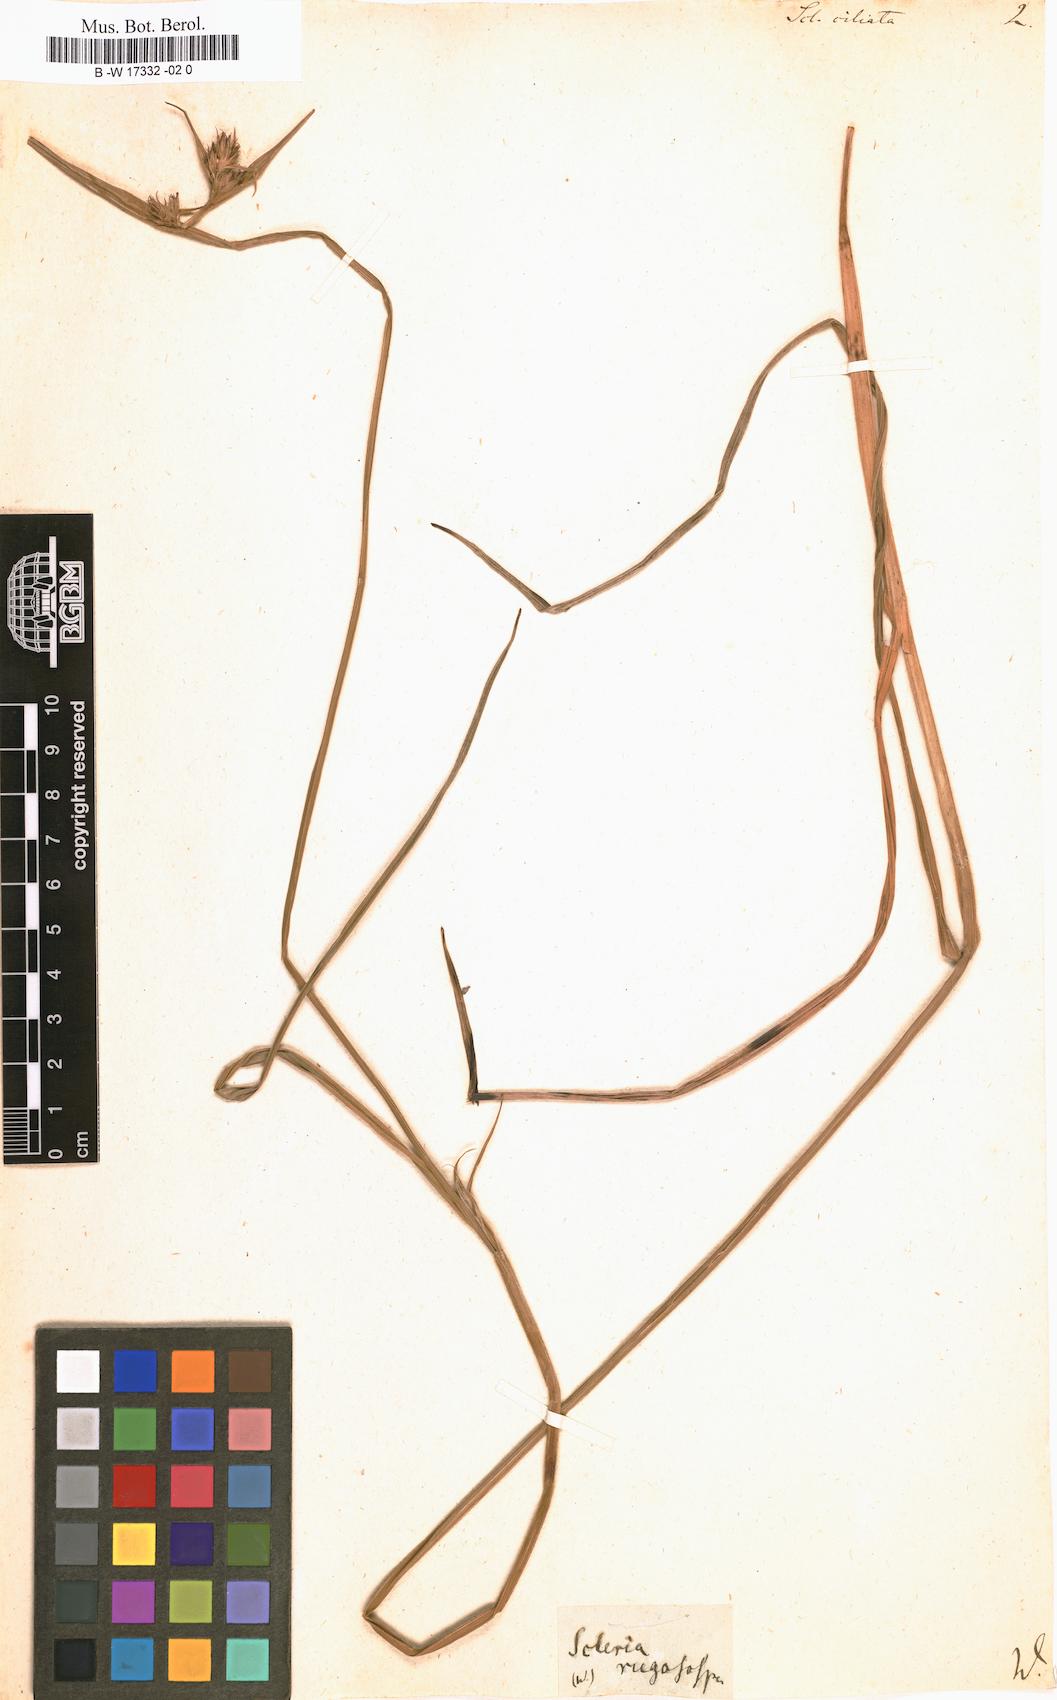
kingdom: Plantae
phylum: Tracheophyta
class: Liliopsida
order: Poales
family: Cyperaceae
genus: Scleria
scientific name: Scleria ciliata
